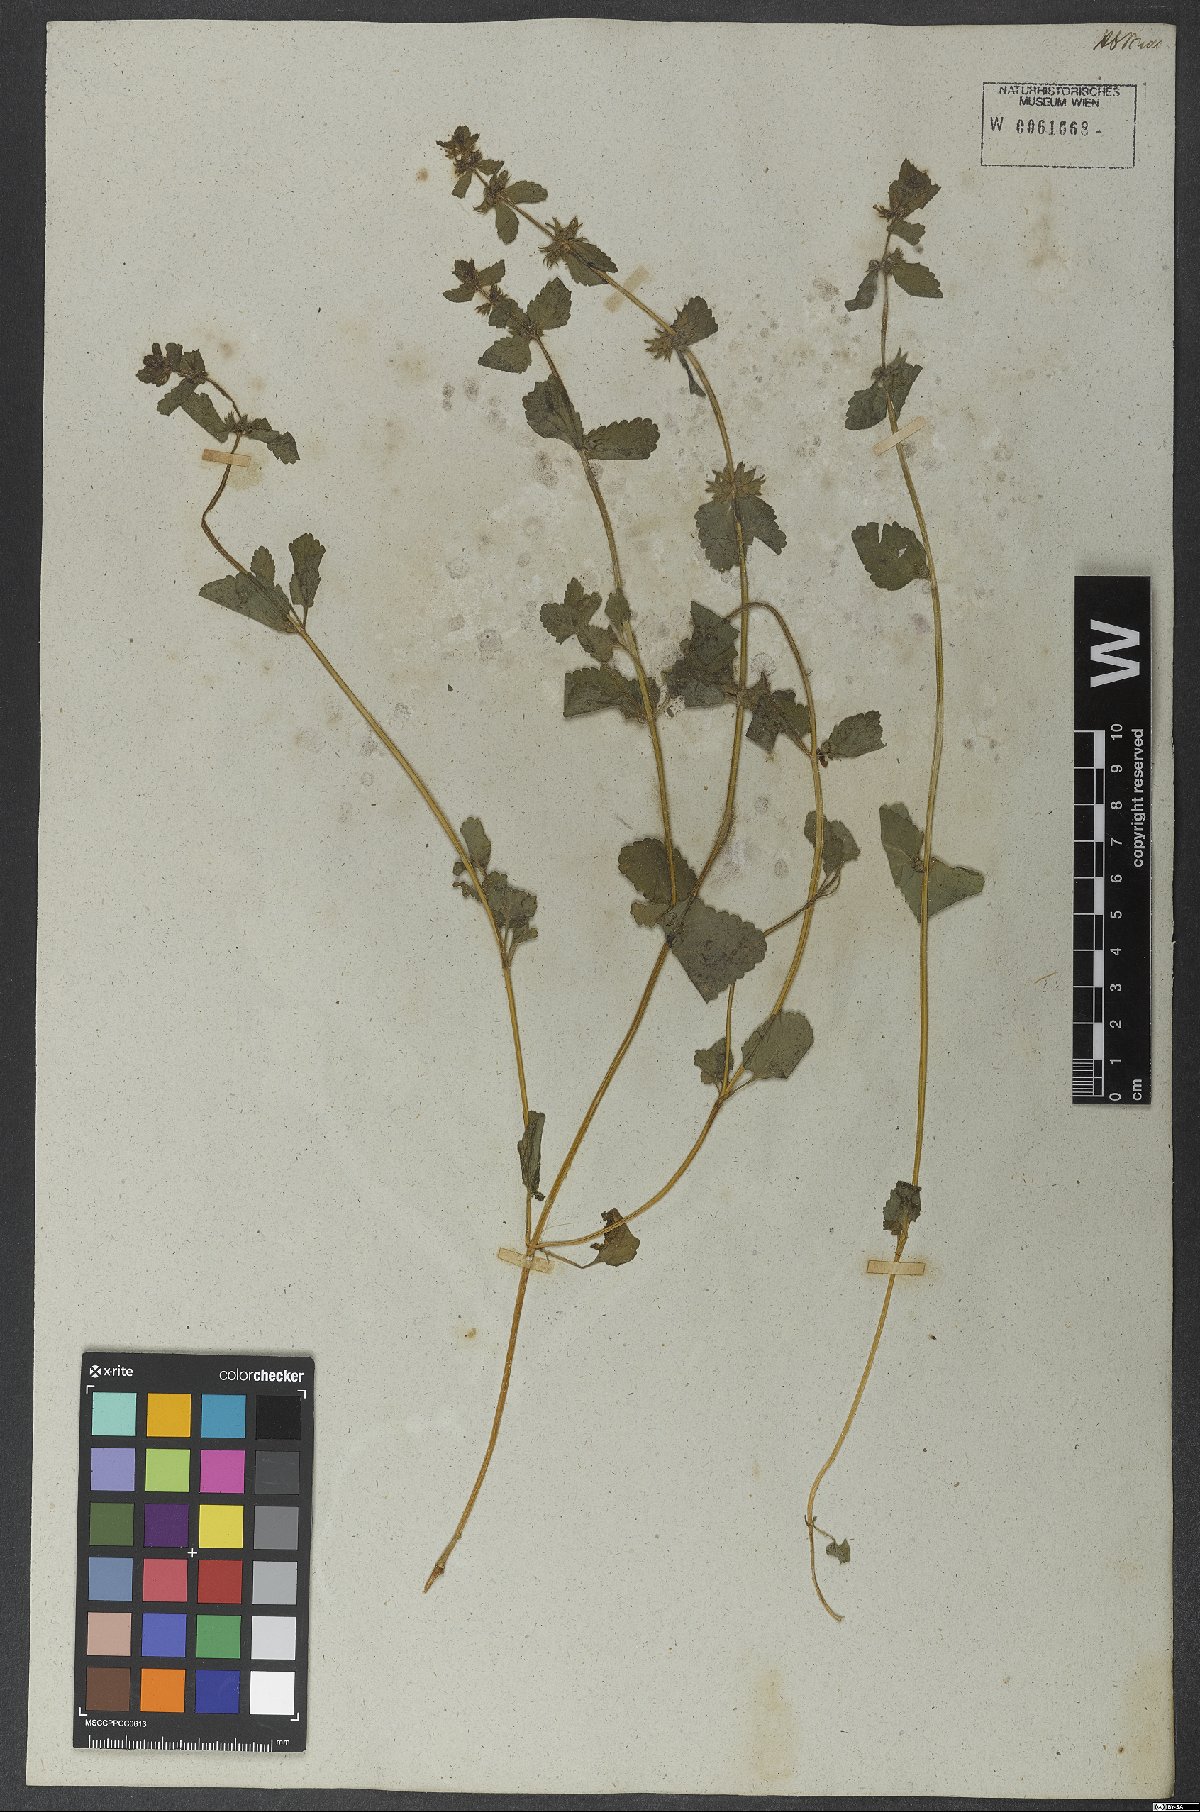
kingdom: Plantae
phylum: Tracheophyta
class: Magnoliopsida
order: Lamiales
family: Lamiaceae
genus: Stachys
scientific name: Stachys arvensis
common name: Field woundwort
